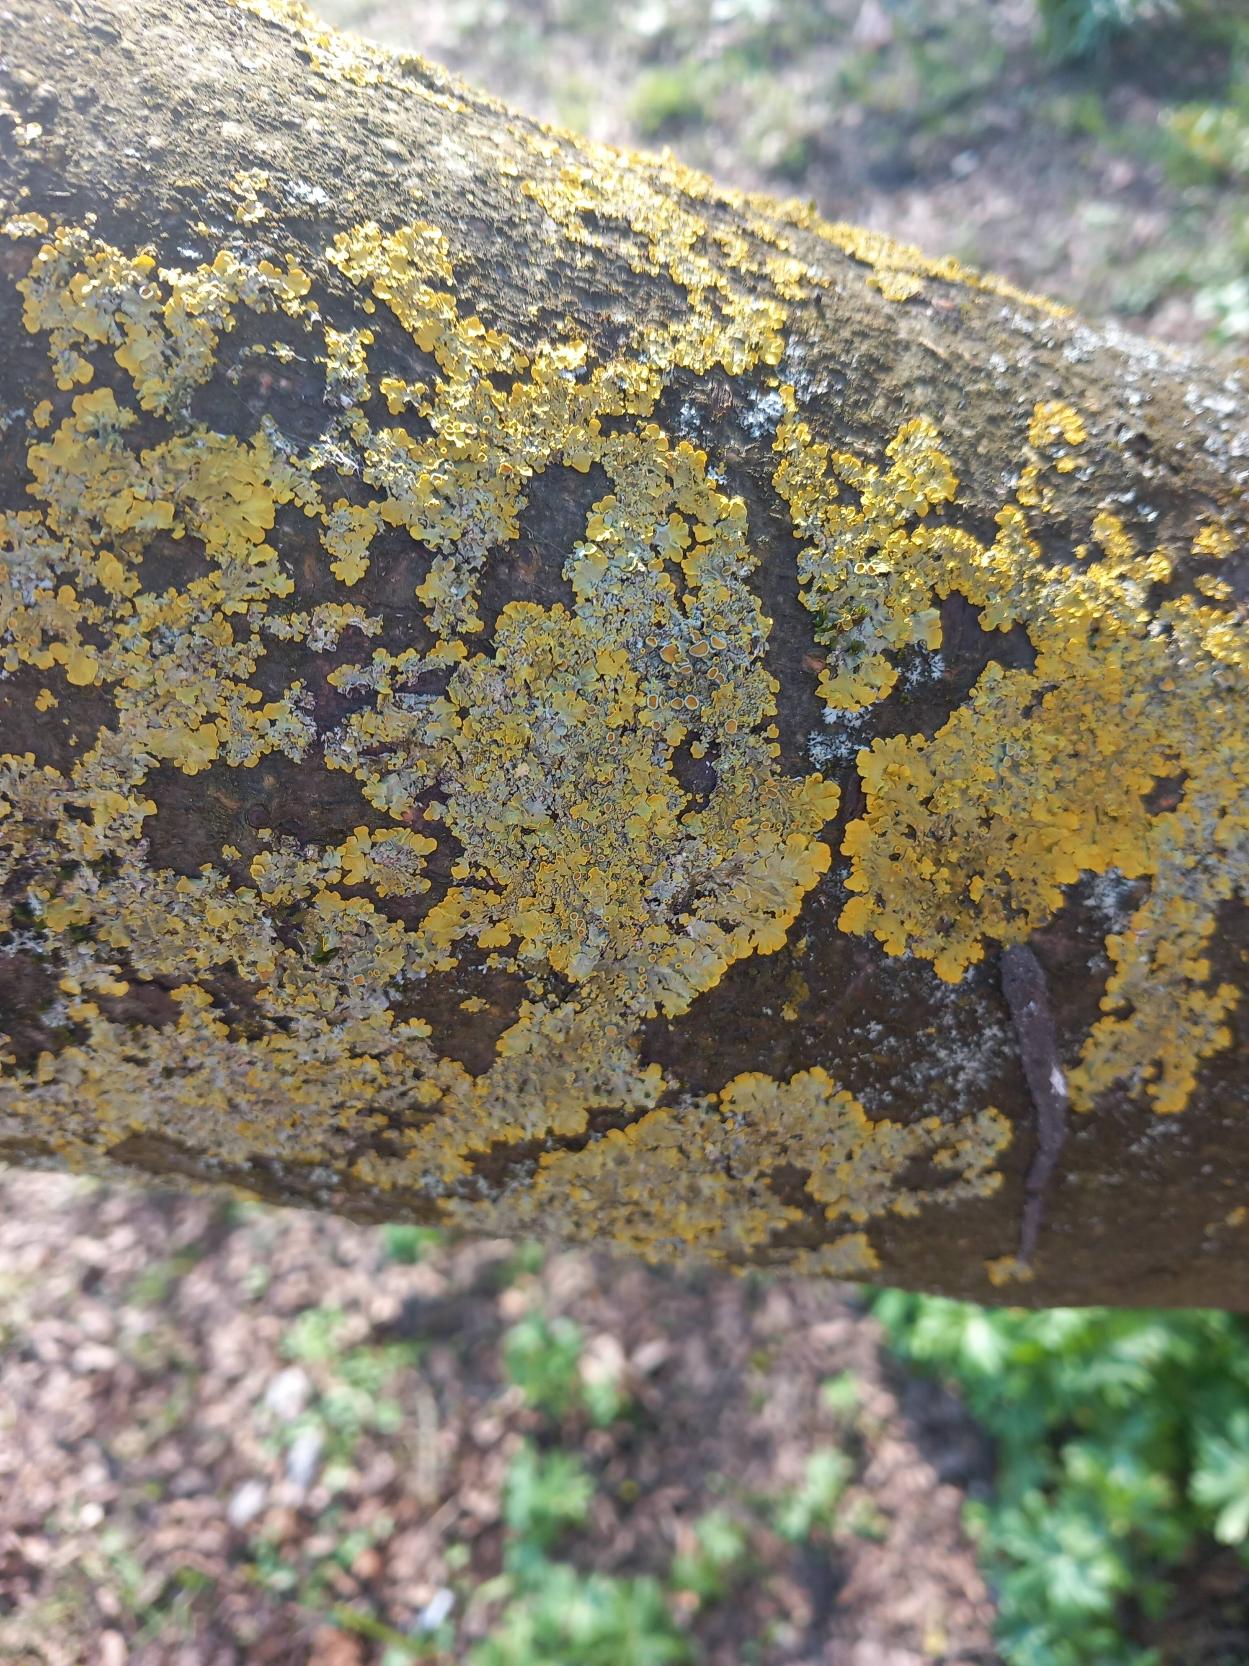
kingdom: Fungi
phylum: Ascomycota
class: Lecanoromycetes
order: Teloschistales
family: Teloschistaceae
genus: Xanthoria
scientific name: Xanthoria parietina
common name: Almindelig væggelav
